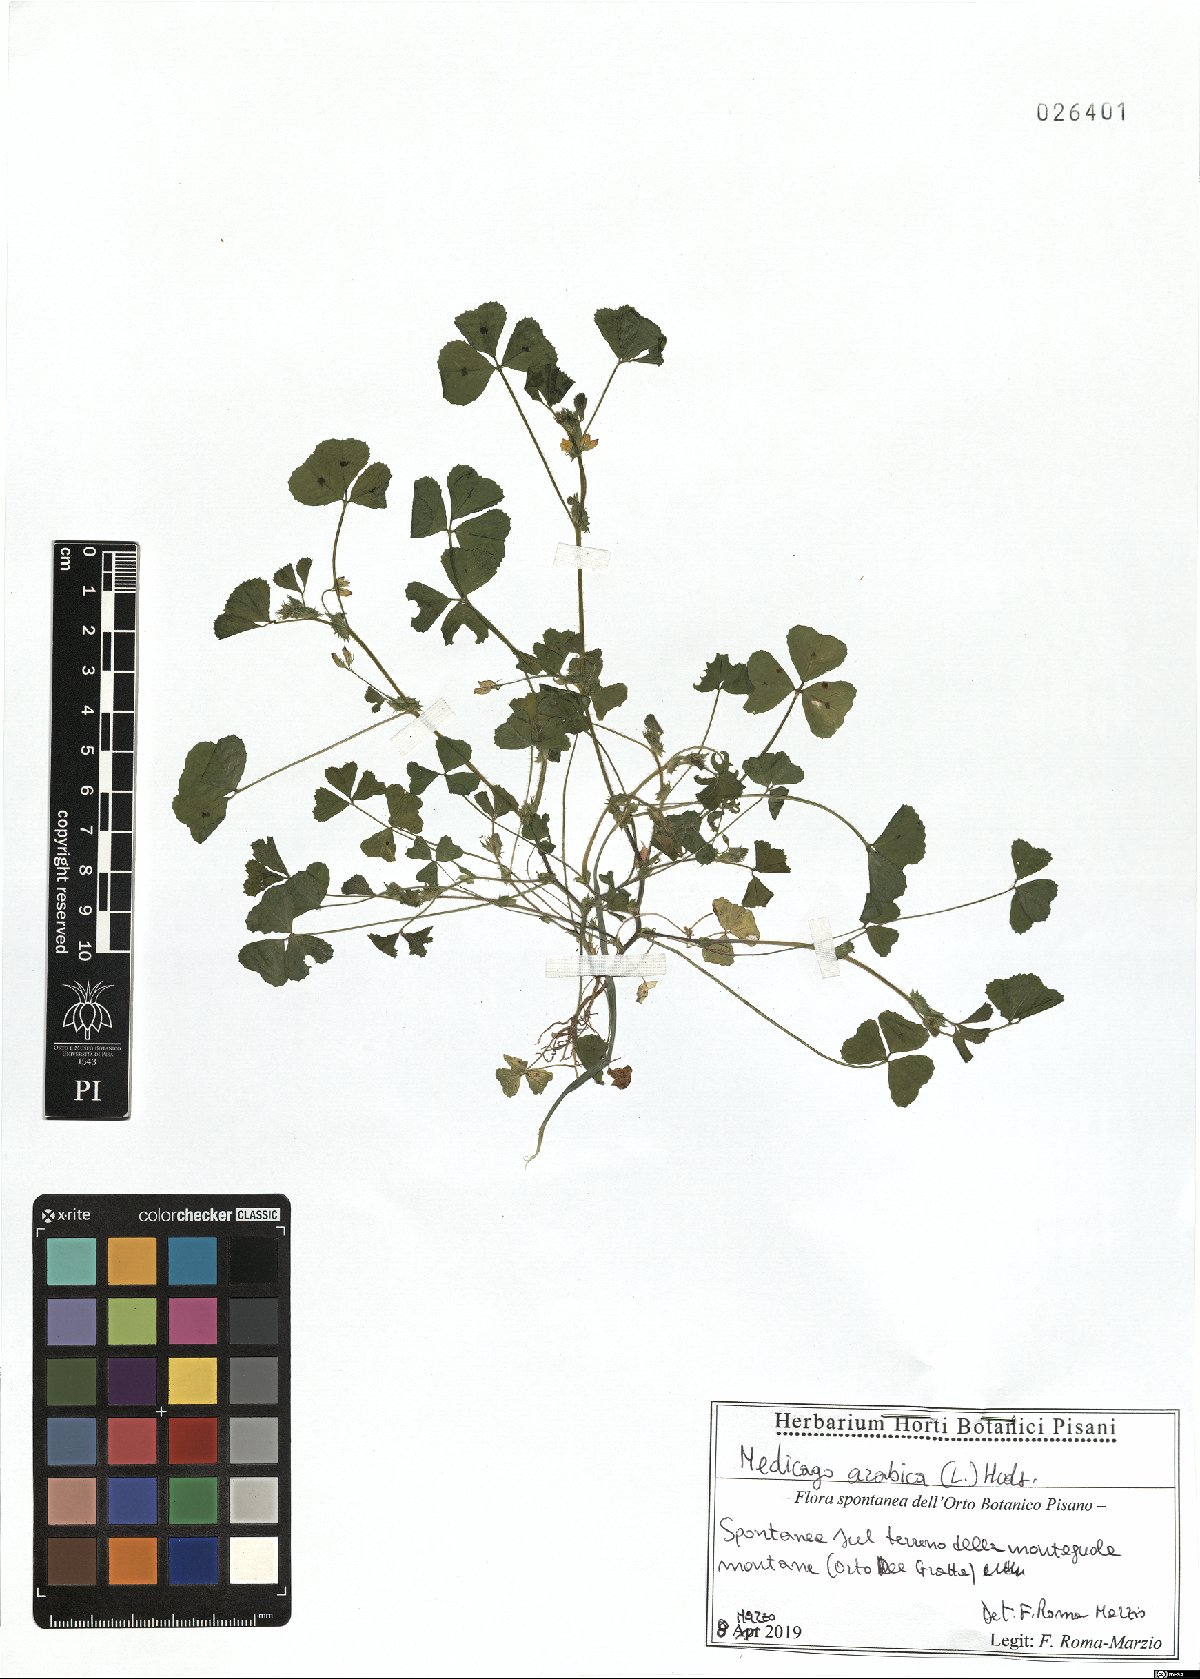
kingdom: Plantae
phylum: Tracheophyta
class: Magnoliopsida
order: Fabales
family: Fabaceae
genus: Medicago
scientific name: Medicago arabica
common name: Spotted medick
